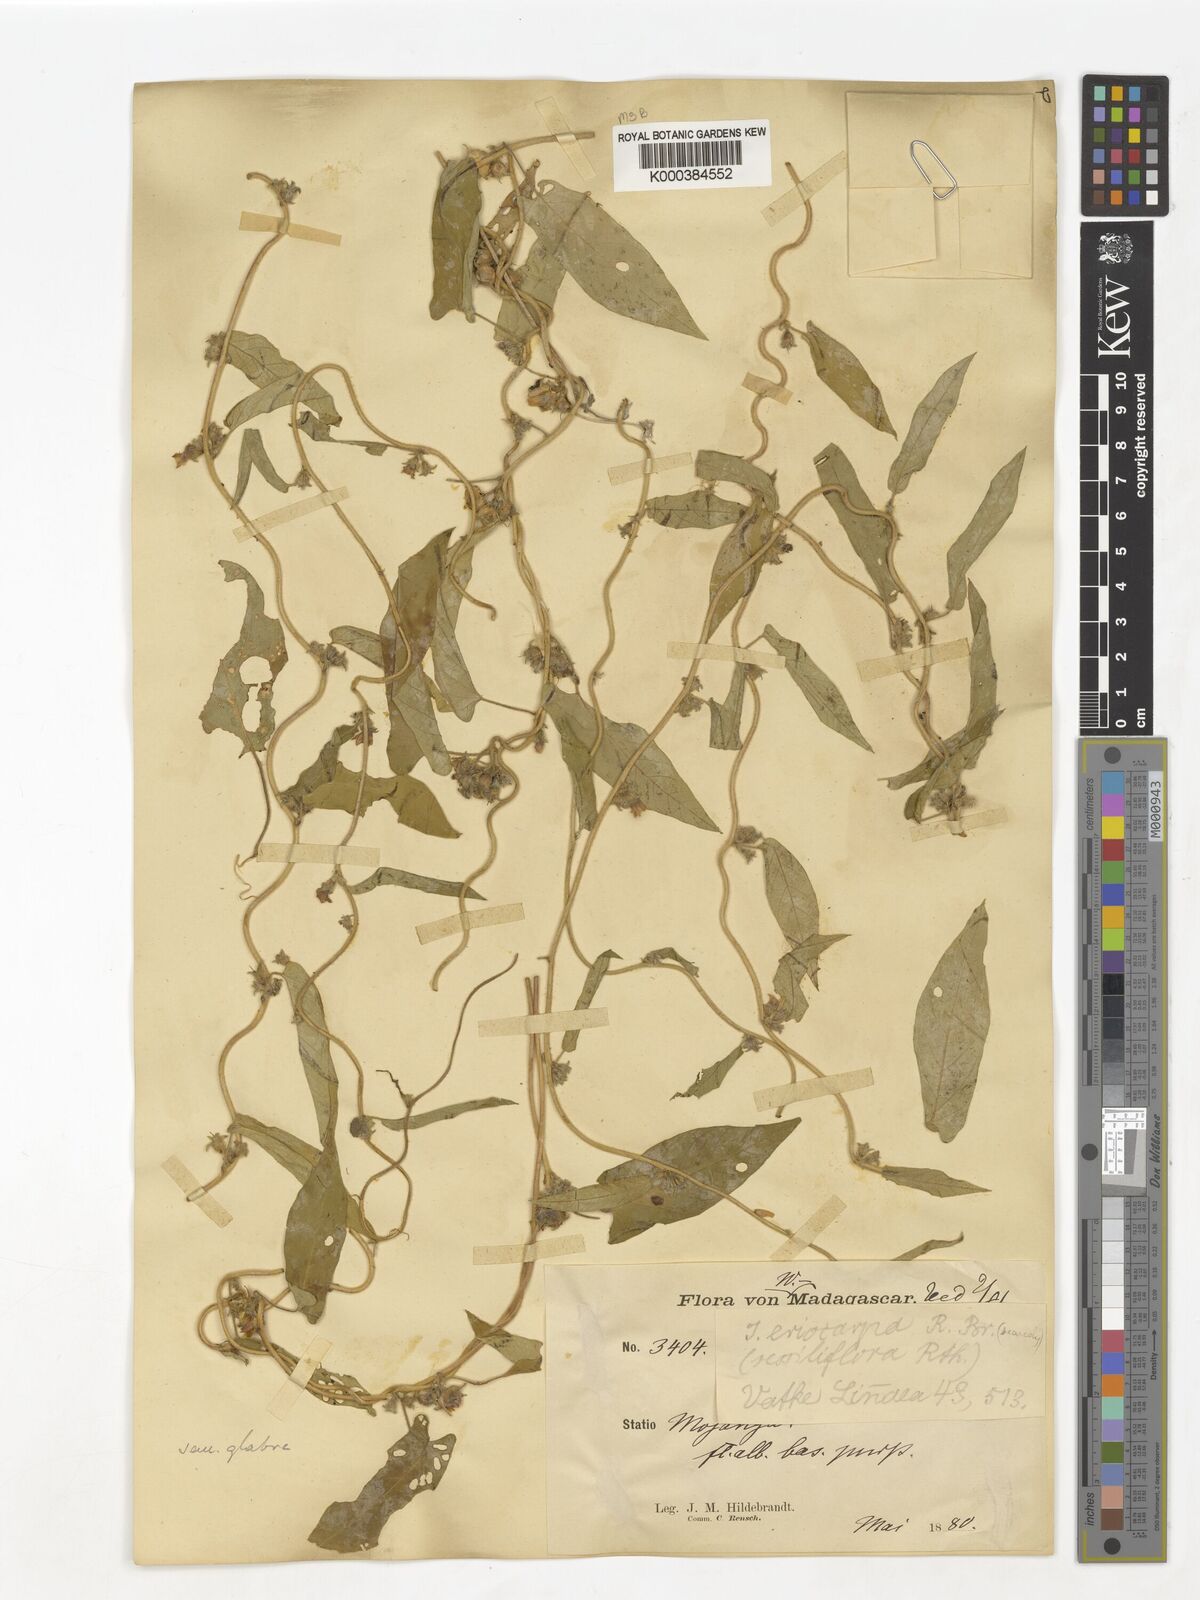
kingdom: Plantae
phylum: Tracheophyta
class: Magnoliopsida
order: Solanales
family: Convolvulaceae
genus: Ipomoea
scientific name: Ipomoea eriocarpa
